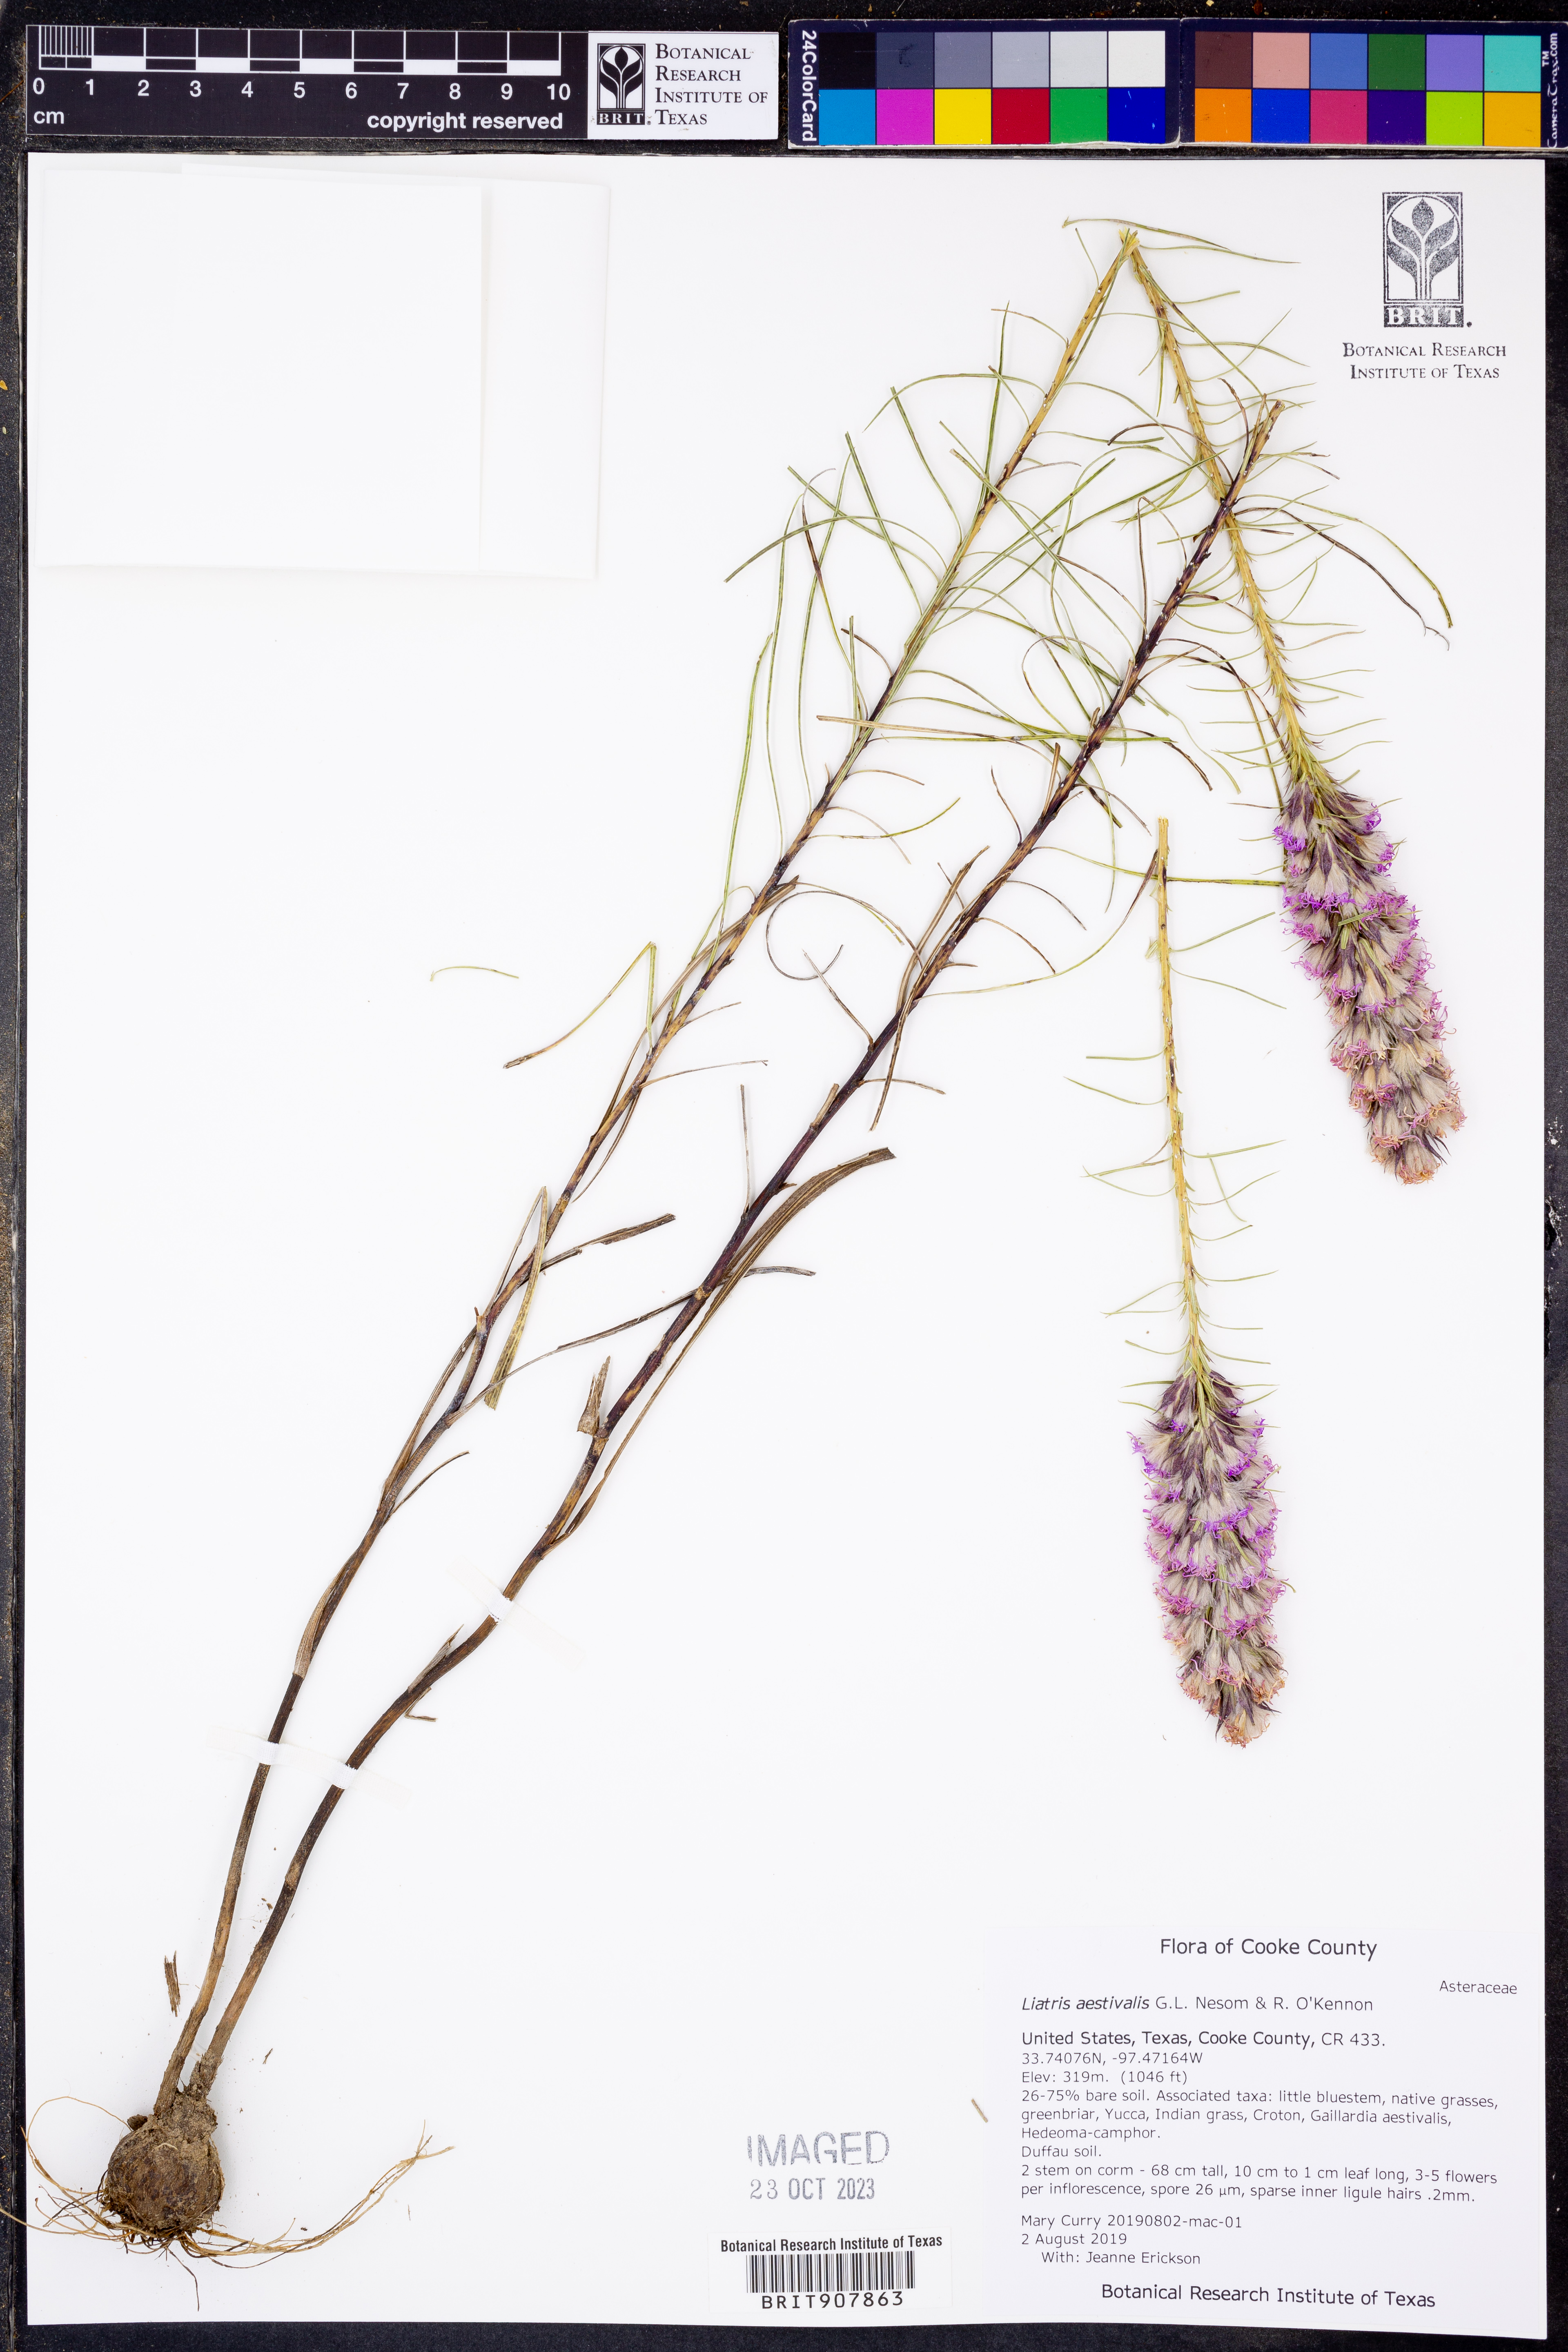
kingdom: Plantae
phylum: Tracheophyta
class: Magnoliopsida
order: Asterales
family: Asteraceae
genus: Liatris
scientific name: Liatris aestivalis
